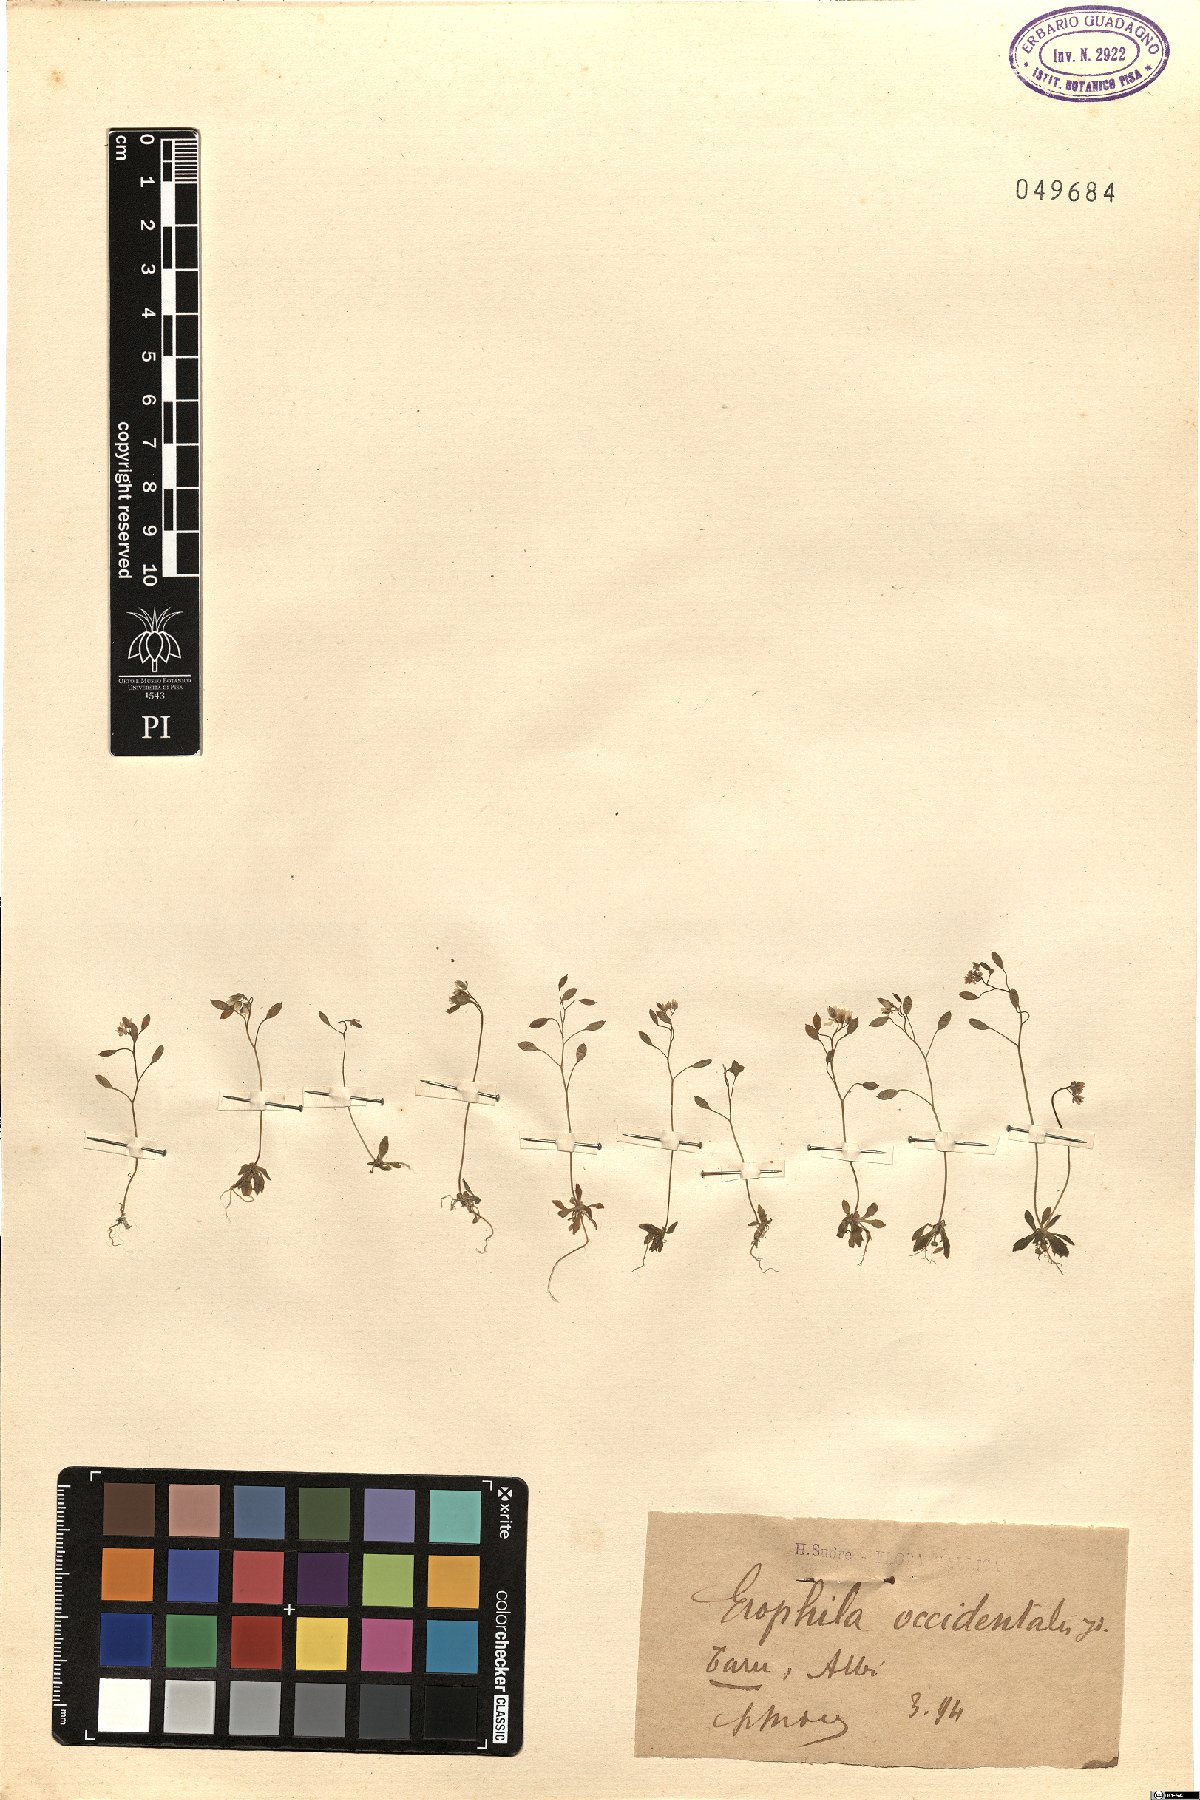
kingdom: Plantae
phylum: Tracheophyta
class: Magnoliopsida
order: Brassicales
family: Brassicaceae
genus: Draba
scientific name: Draba verna
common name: Spring draba
